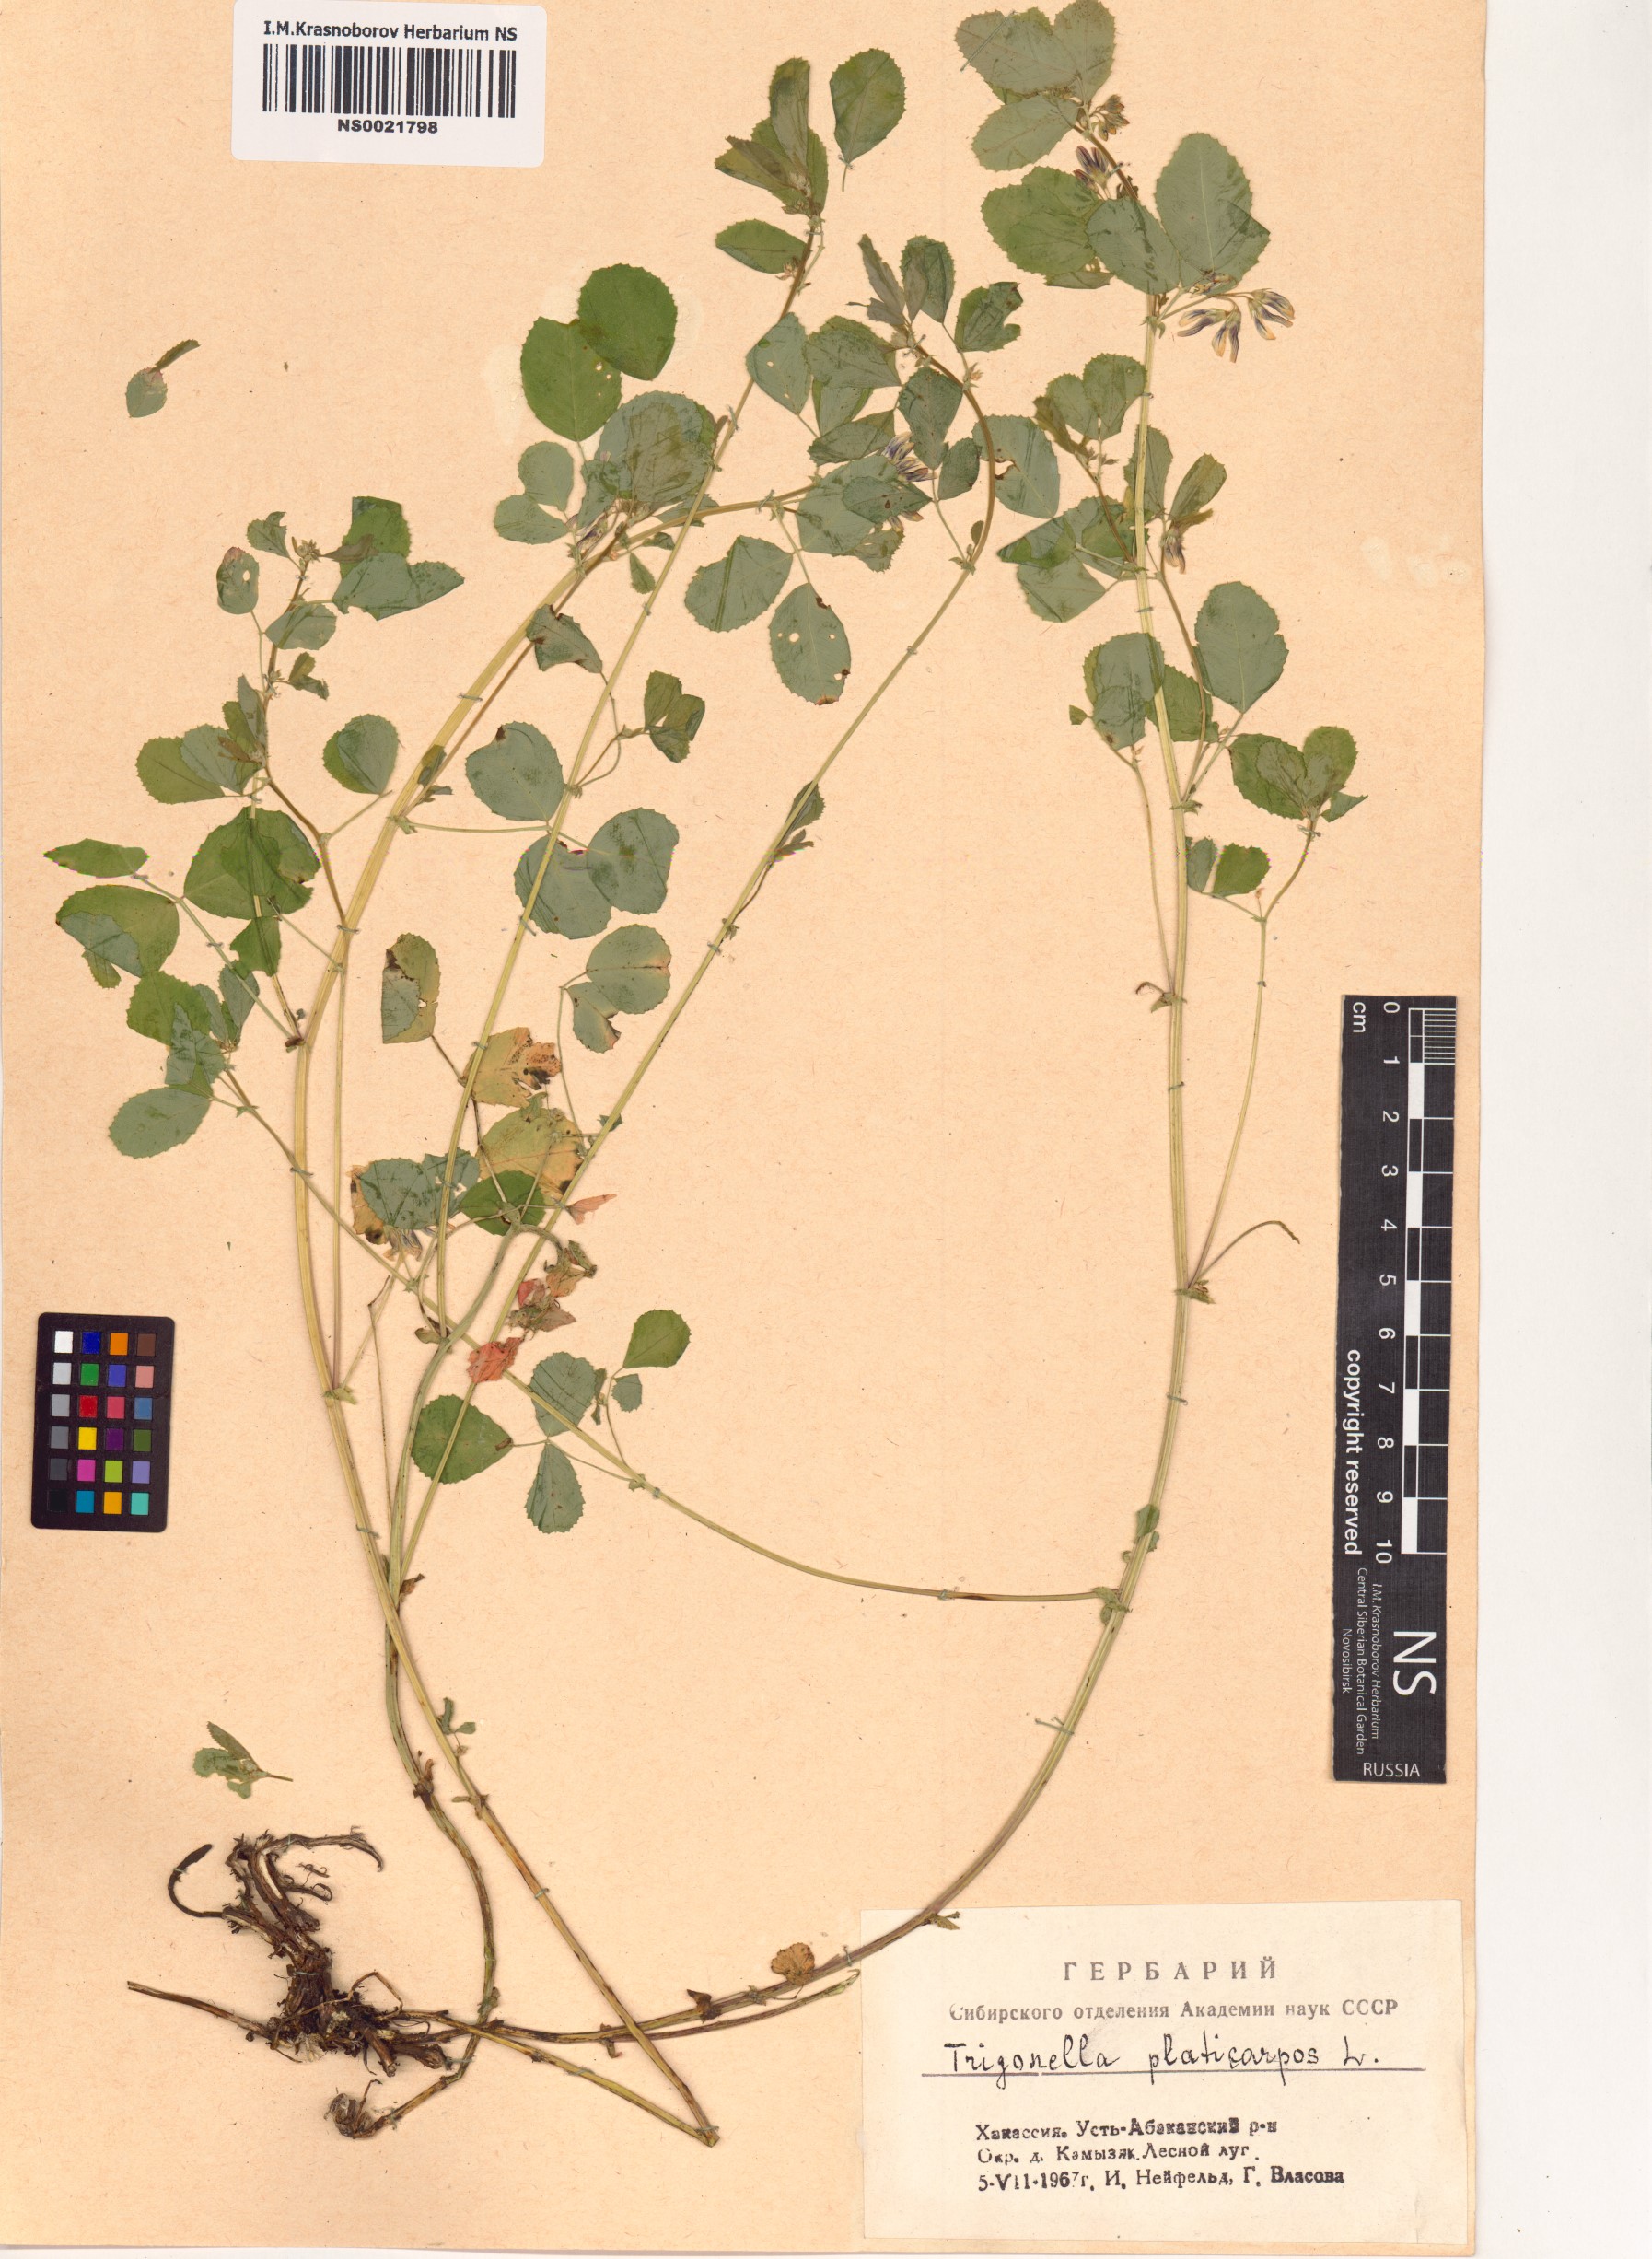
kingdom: Plantae
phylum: Tracheophyta
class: Magnoliopsida
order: Fabales
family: Fabaceae
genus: Medicago
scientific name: Medicago platycarpos
